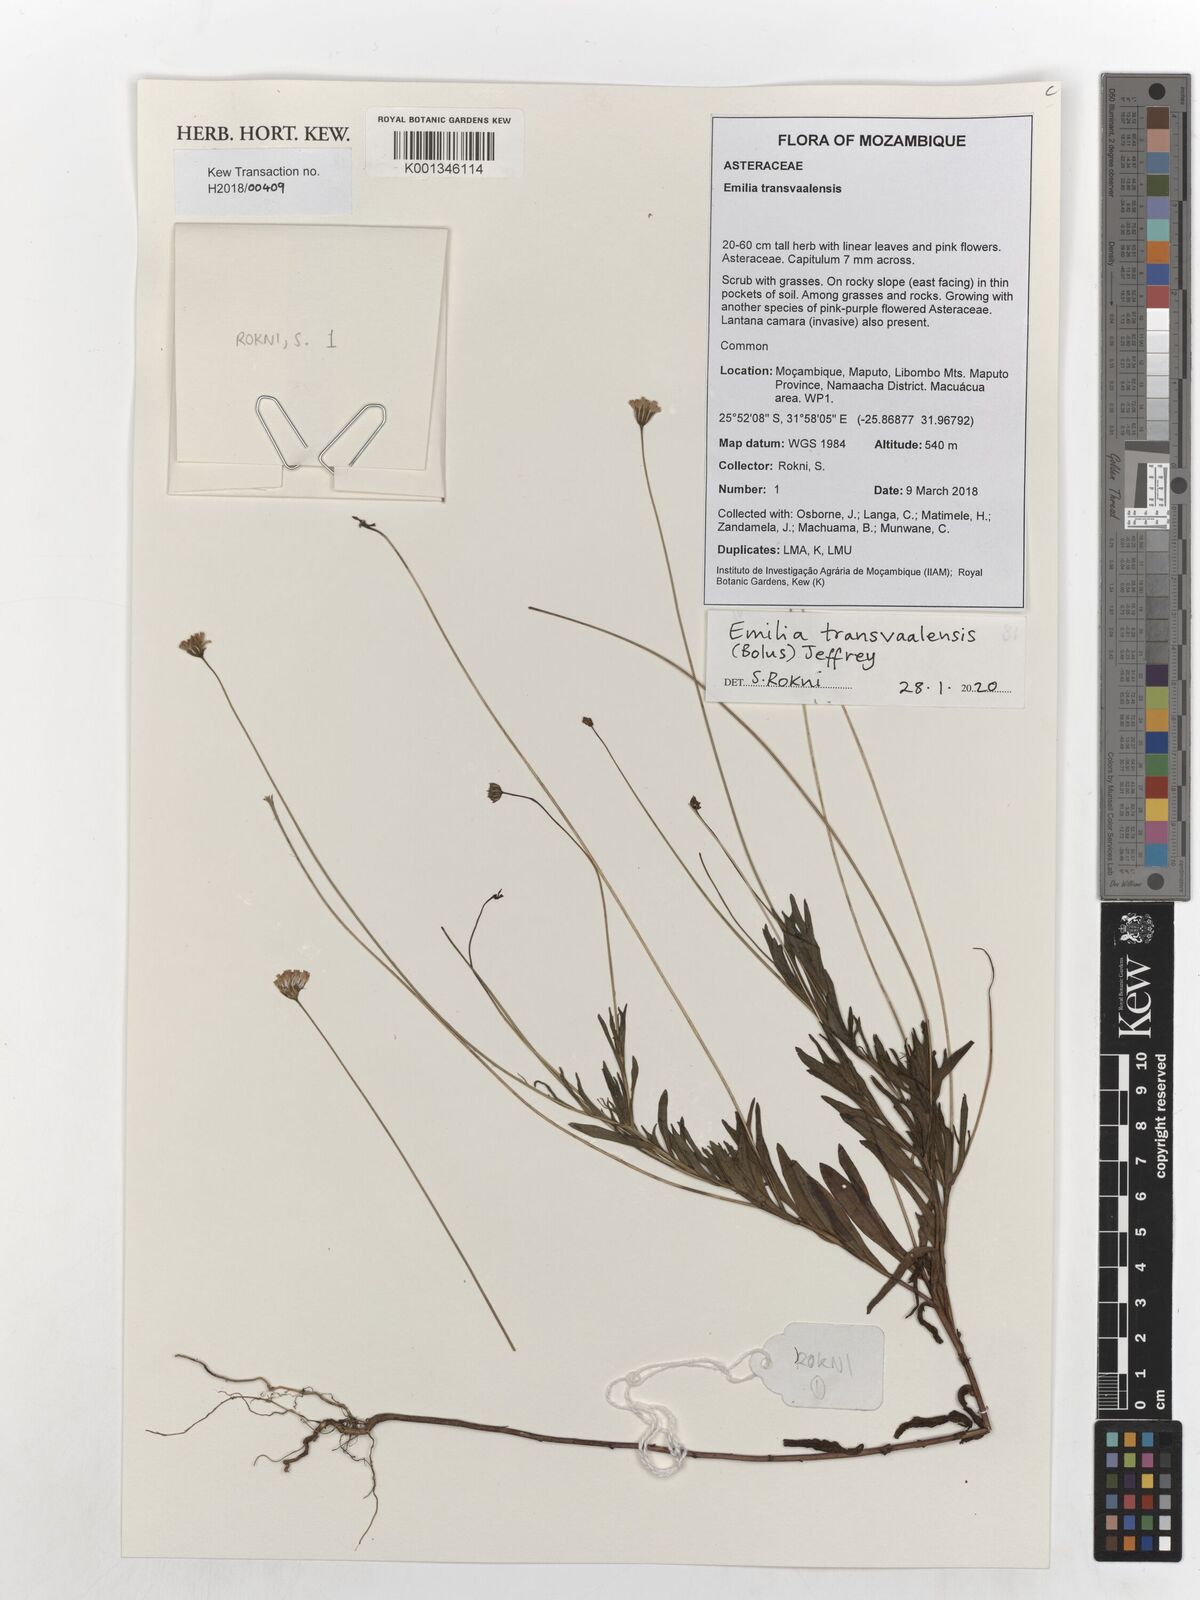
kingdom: Plantae
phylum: Tracheophyta
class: Magnoliopsida
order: Asterales
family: Asteraceae
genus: Emilia
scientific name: Emilia transvaalensis
